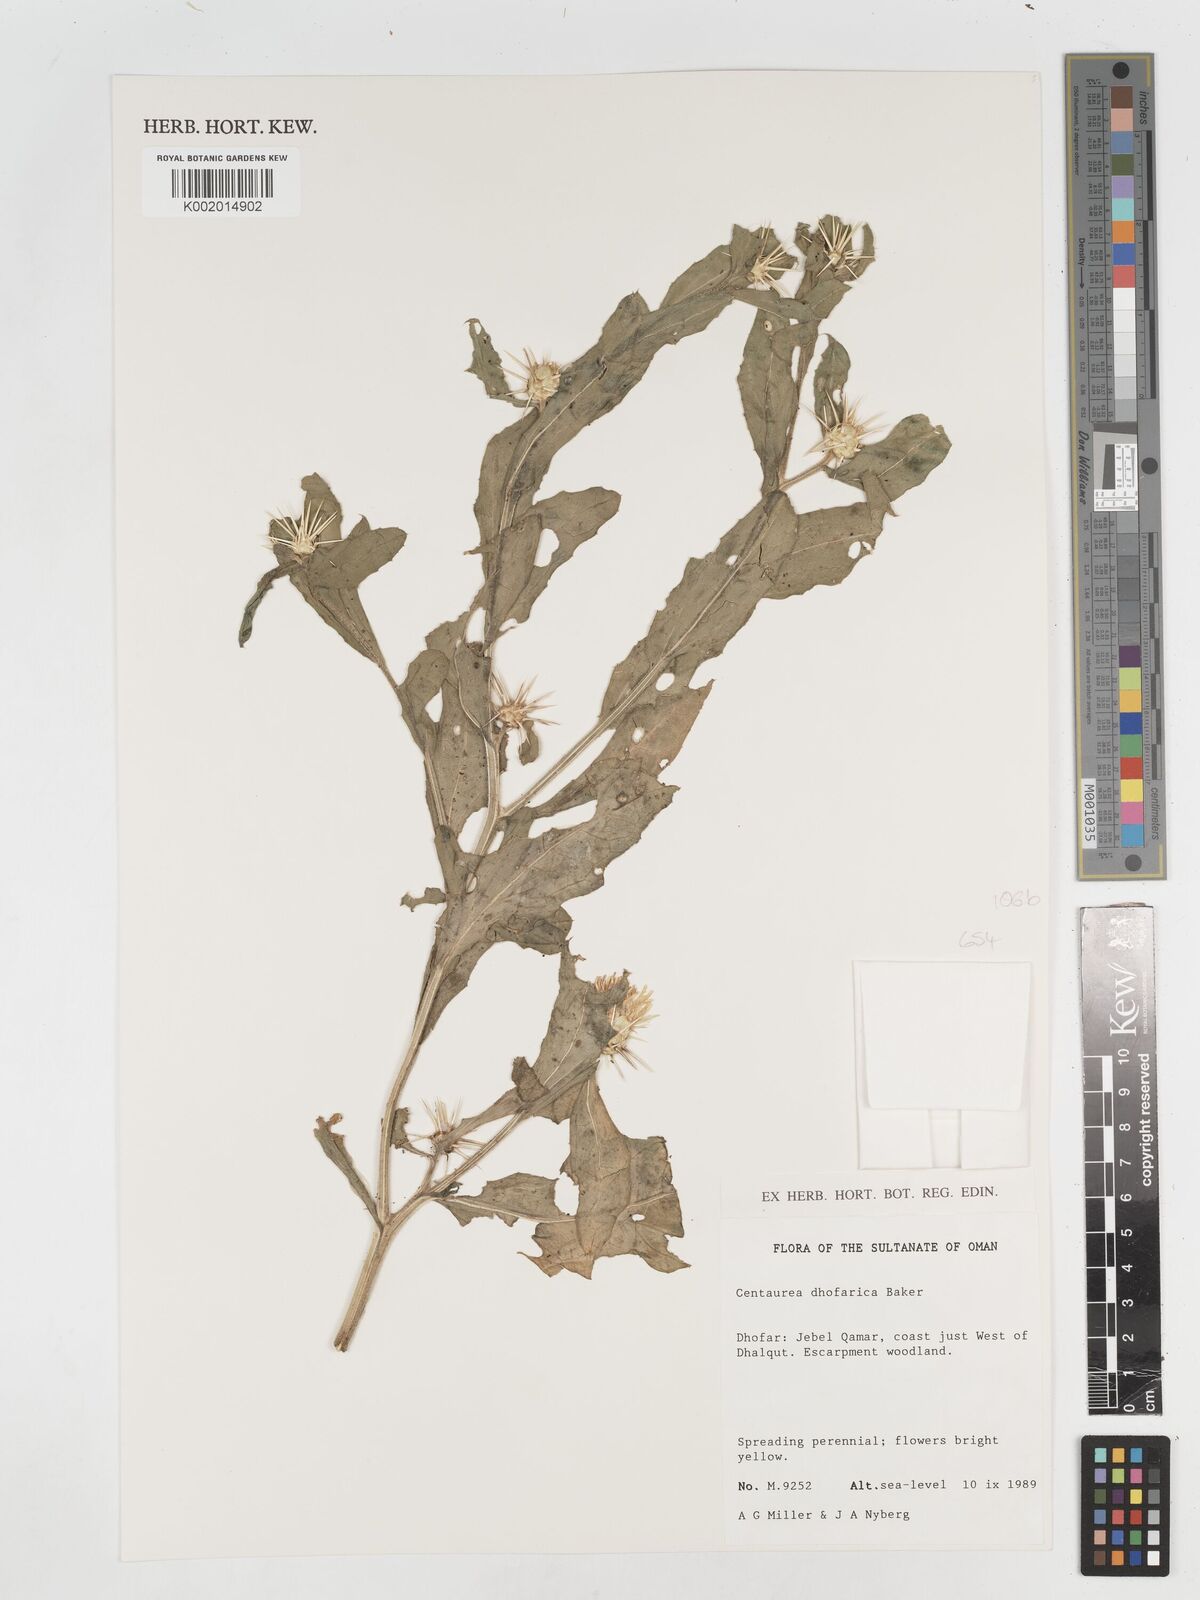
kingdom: Plantae
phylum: Tracheophyta
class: Magnoliopsida
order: Asterales
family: Asteraceae
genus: Centaurea
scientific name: Centaurea dhofarica
